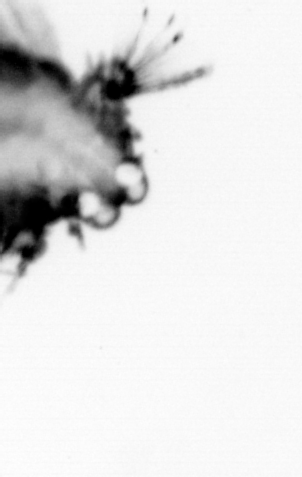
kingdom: Animalia
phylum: Annelida
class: Polychaeta
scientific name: Polychaeta
